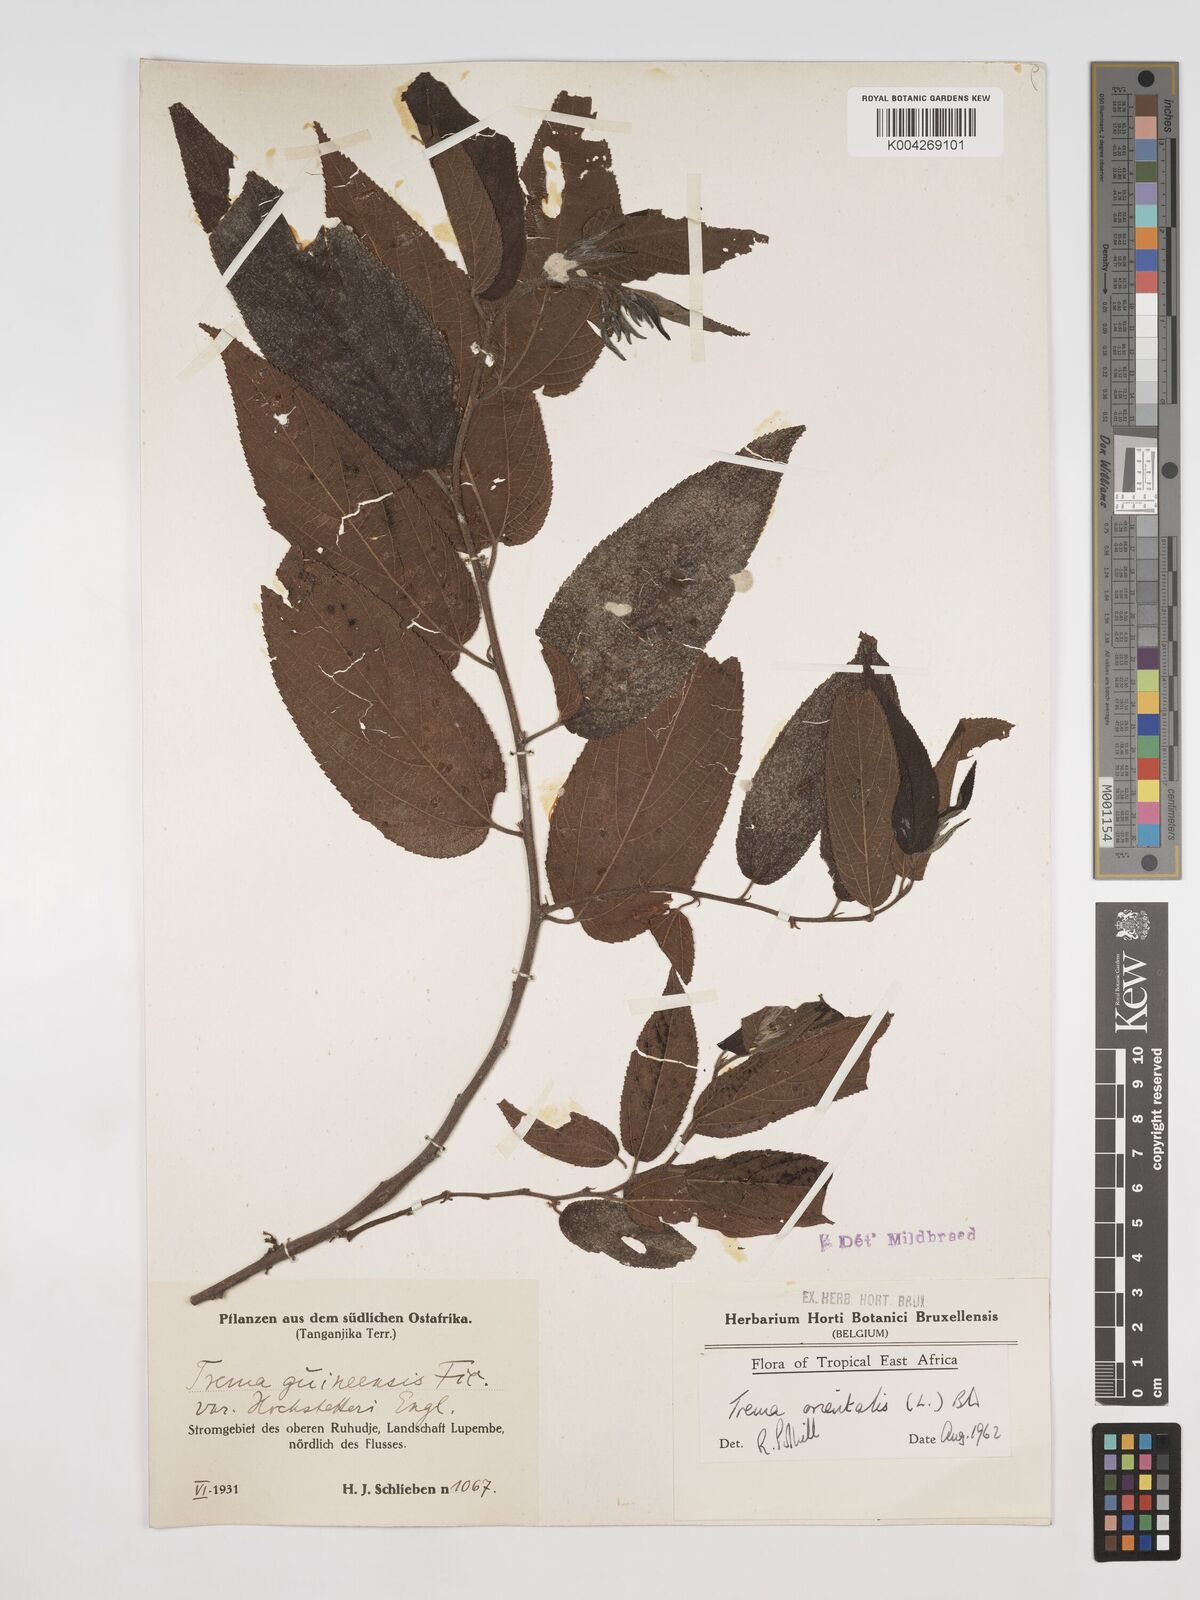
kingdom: Plantae
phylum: Tracheophyta
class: Magnoliopsida
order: Rosales
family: Cannabaceae
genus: Trema
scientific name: Trema orientale
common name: Indian charcoal tree
